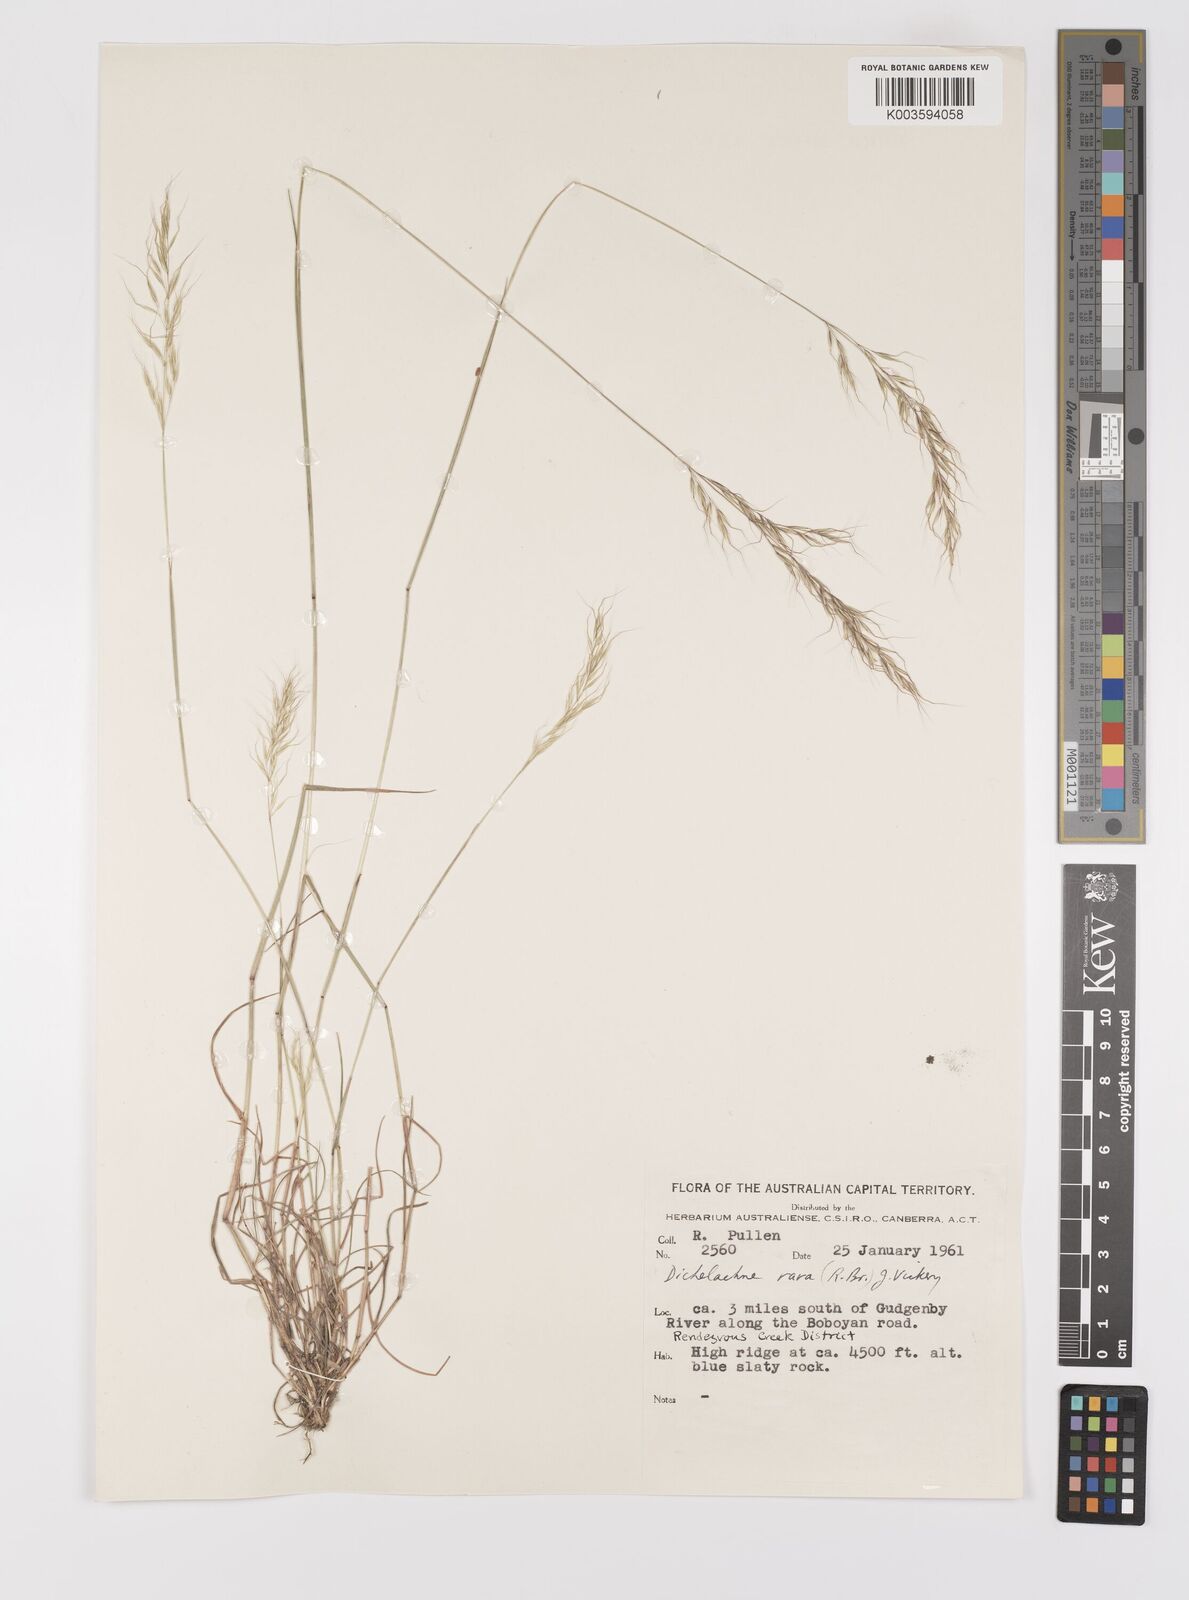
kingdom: Plantae
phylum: Tracheophyta
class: Liliopsida
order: Poales
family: Poaceae
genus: Dichelachne
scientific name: Dichelachne rara
